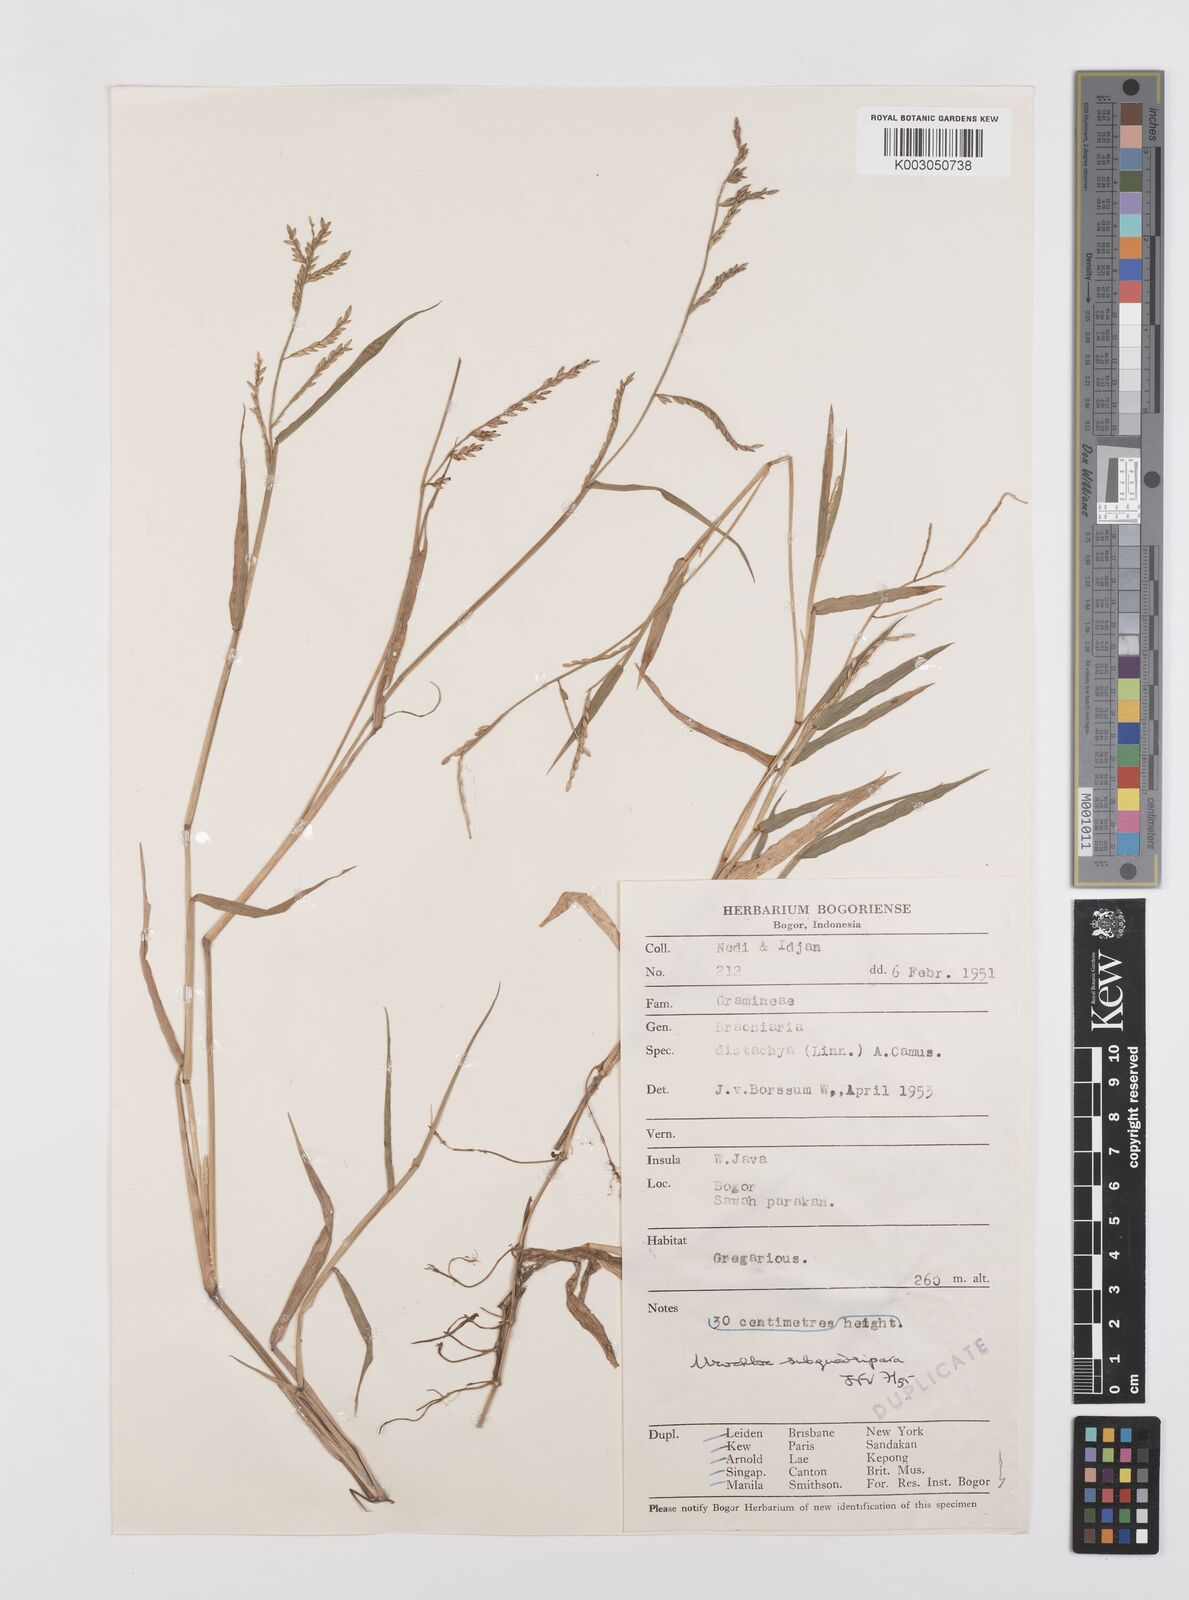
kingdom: Plantae
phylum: Tracheophyta
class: Liliopsida
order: Poales
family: Poaceae
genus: Urochloa
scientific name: Urochloa subquadripara
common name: Armgrass millet
